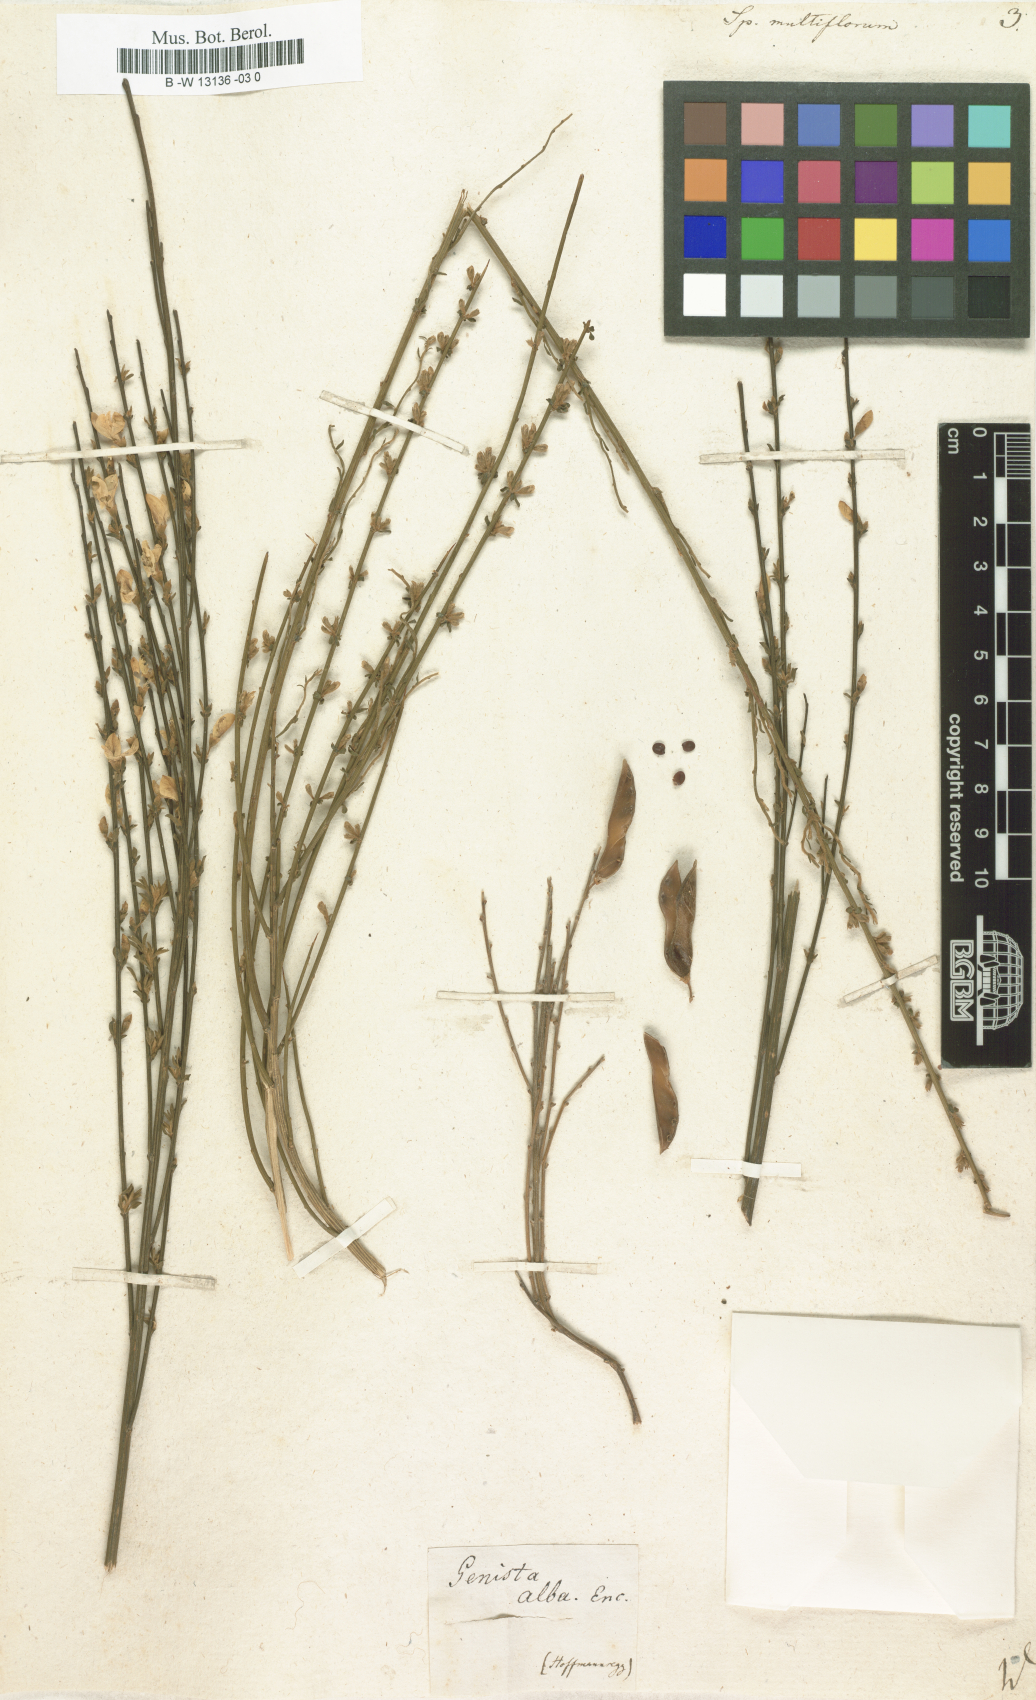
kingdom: Plantae
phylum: Tracheophyta
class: Magnoliopsida
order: Fabales
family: Fabaceae
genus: Cytisus
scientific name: Cytisus multiflorus
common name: White broom
